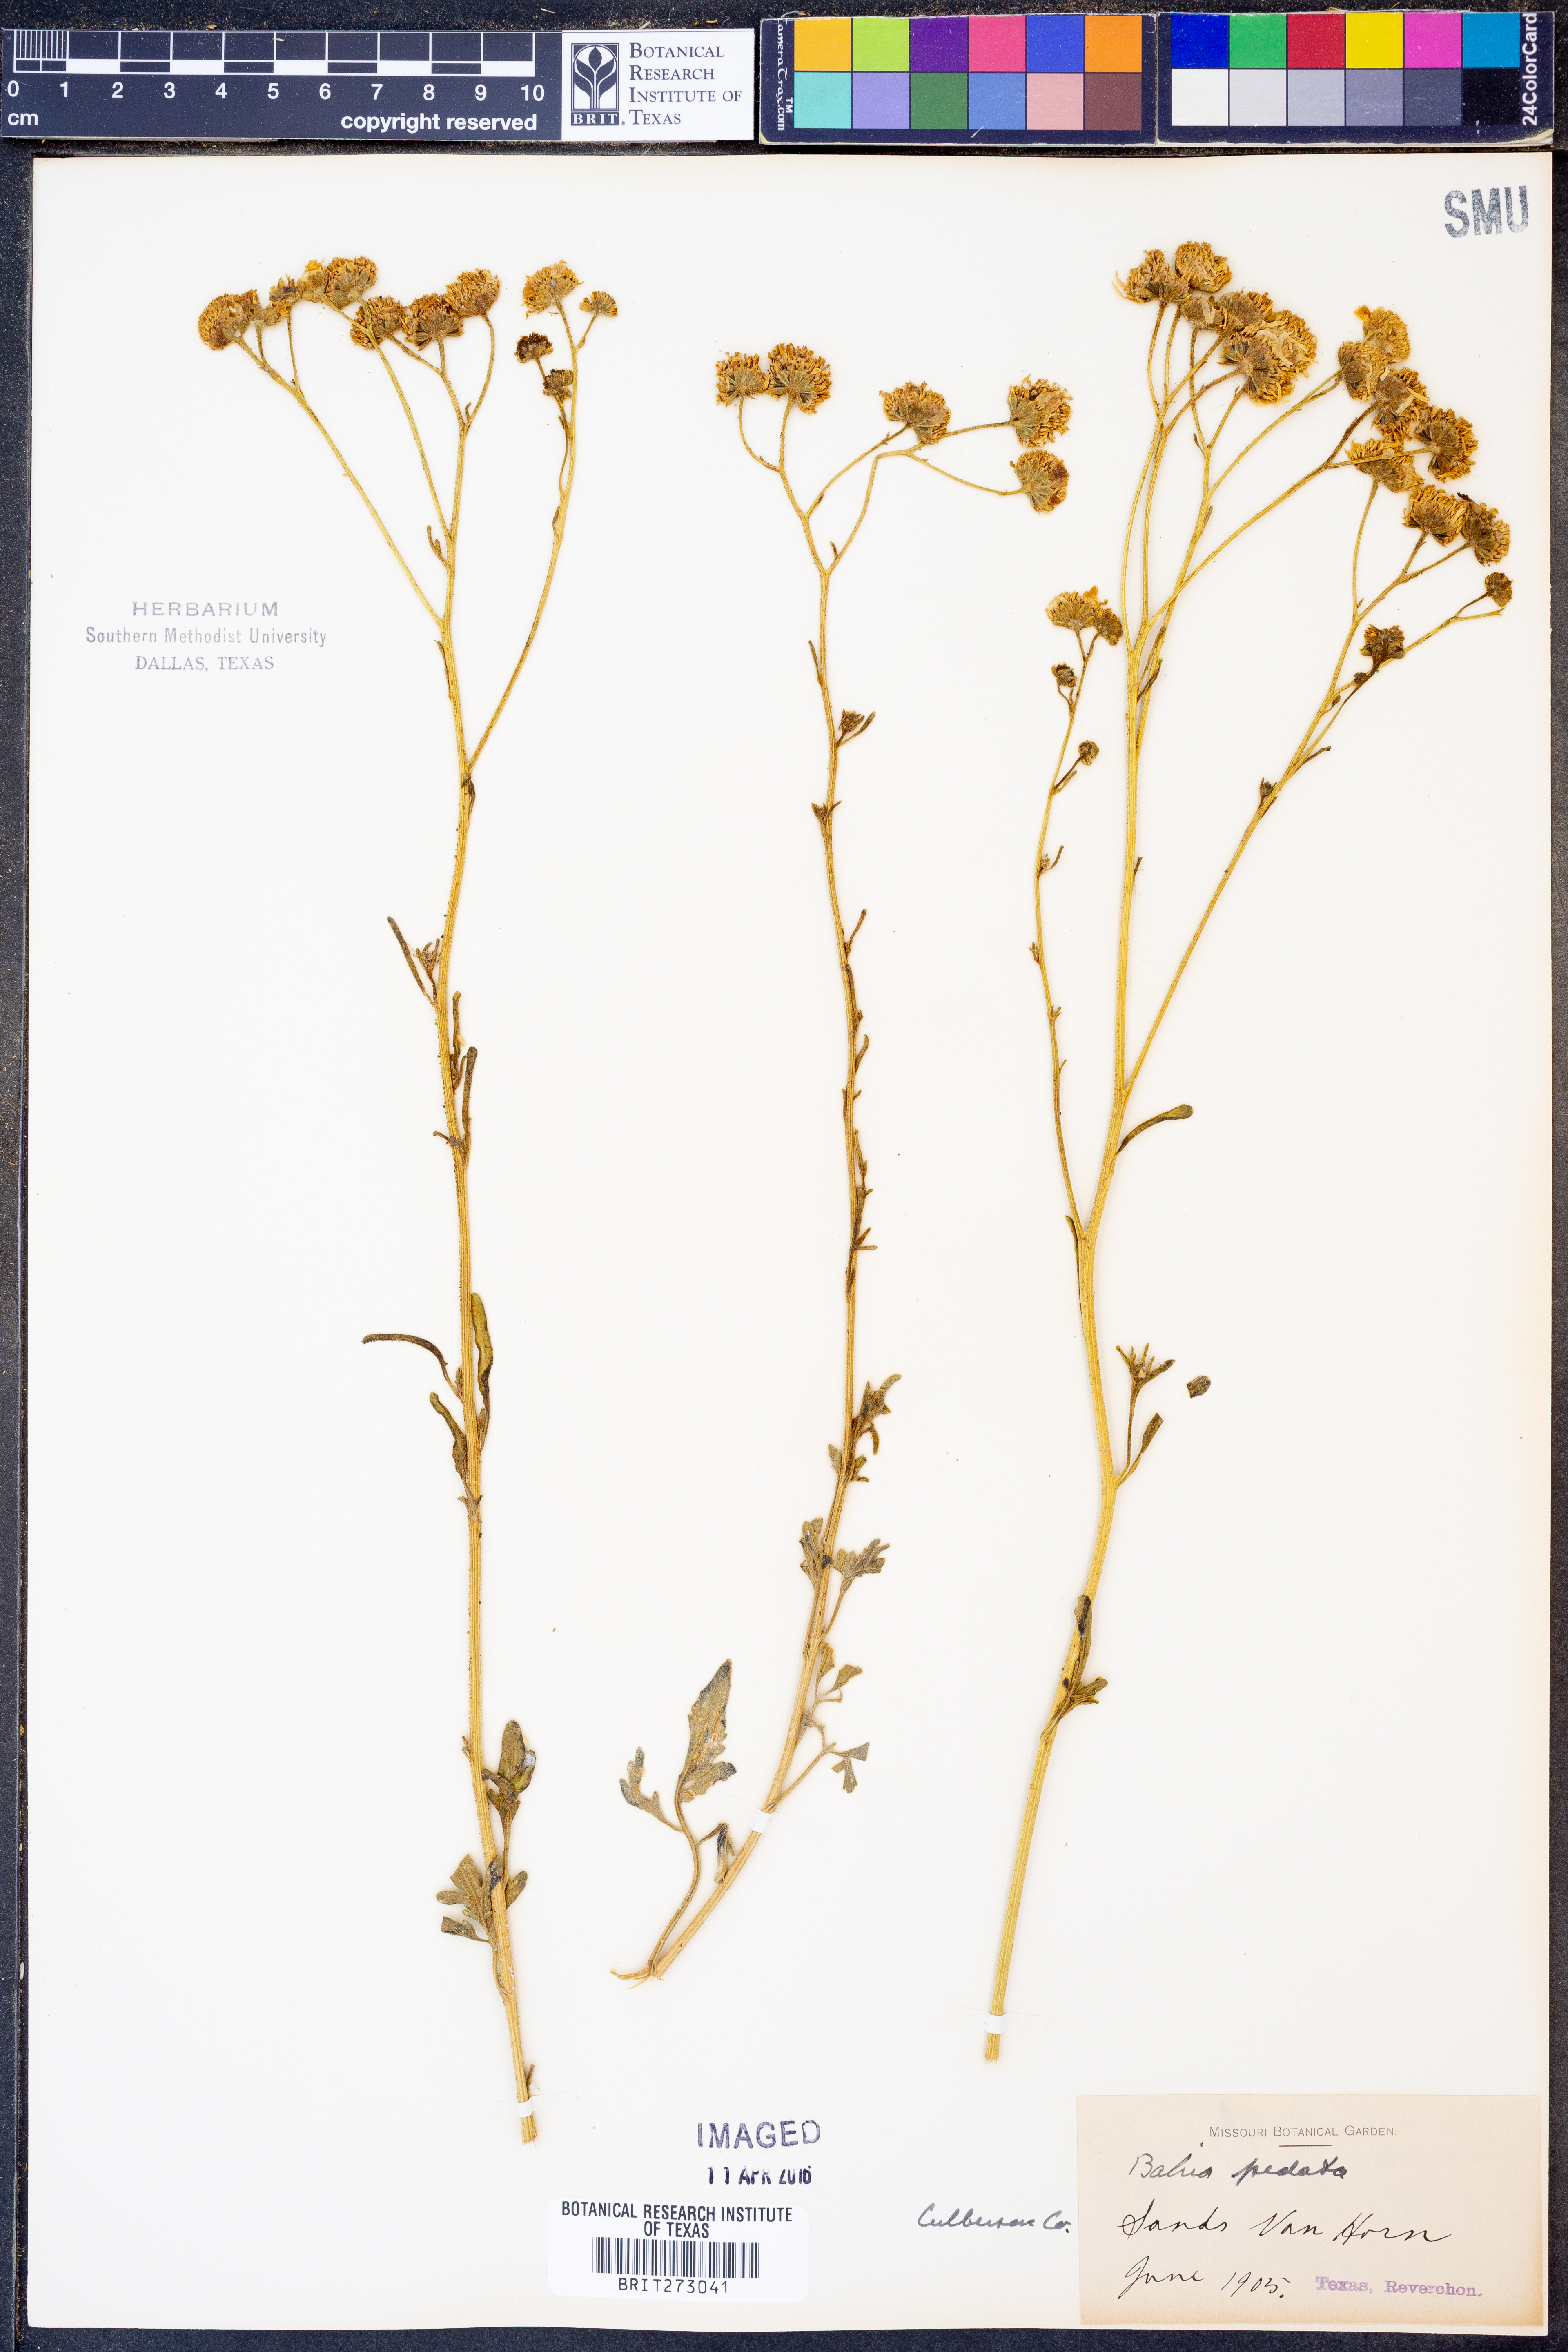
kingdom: Plantae
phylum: Tracheophyta
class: Magnoliopsida
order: Asterales
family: Asteraceae
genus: Hymenothrix
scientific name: Hymenothrix pedata
